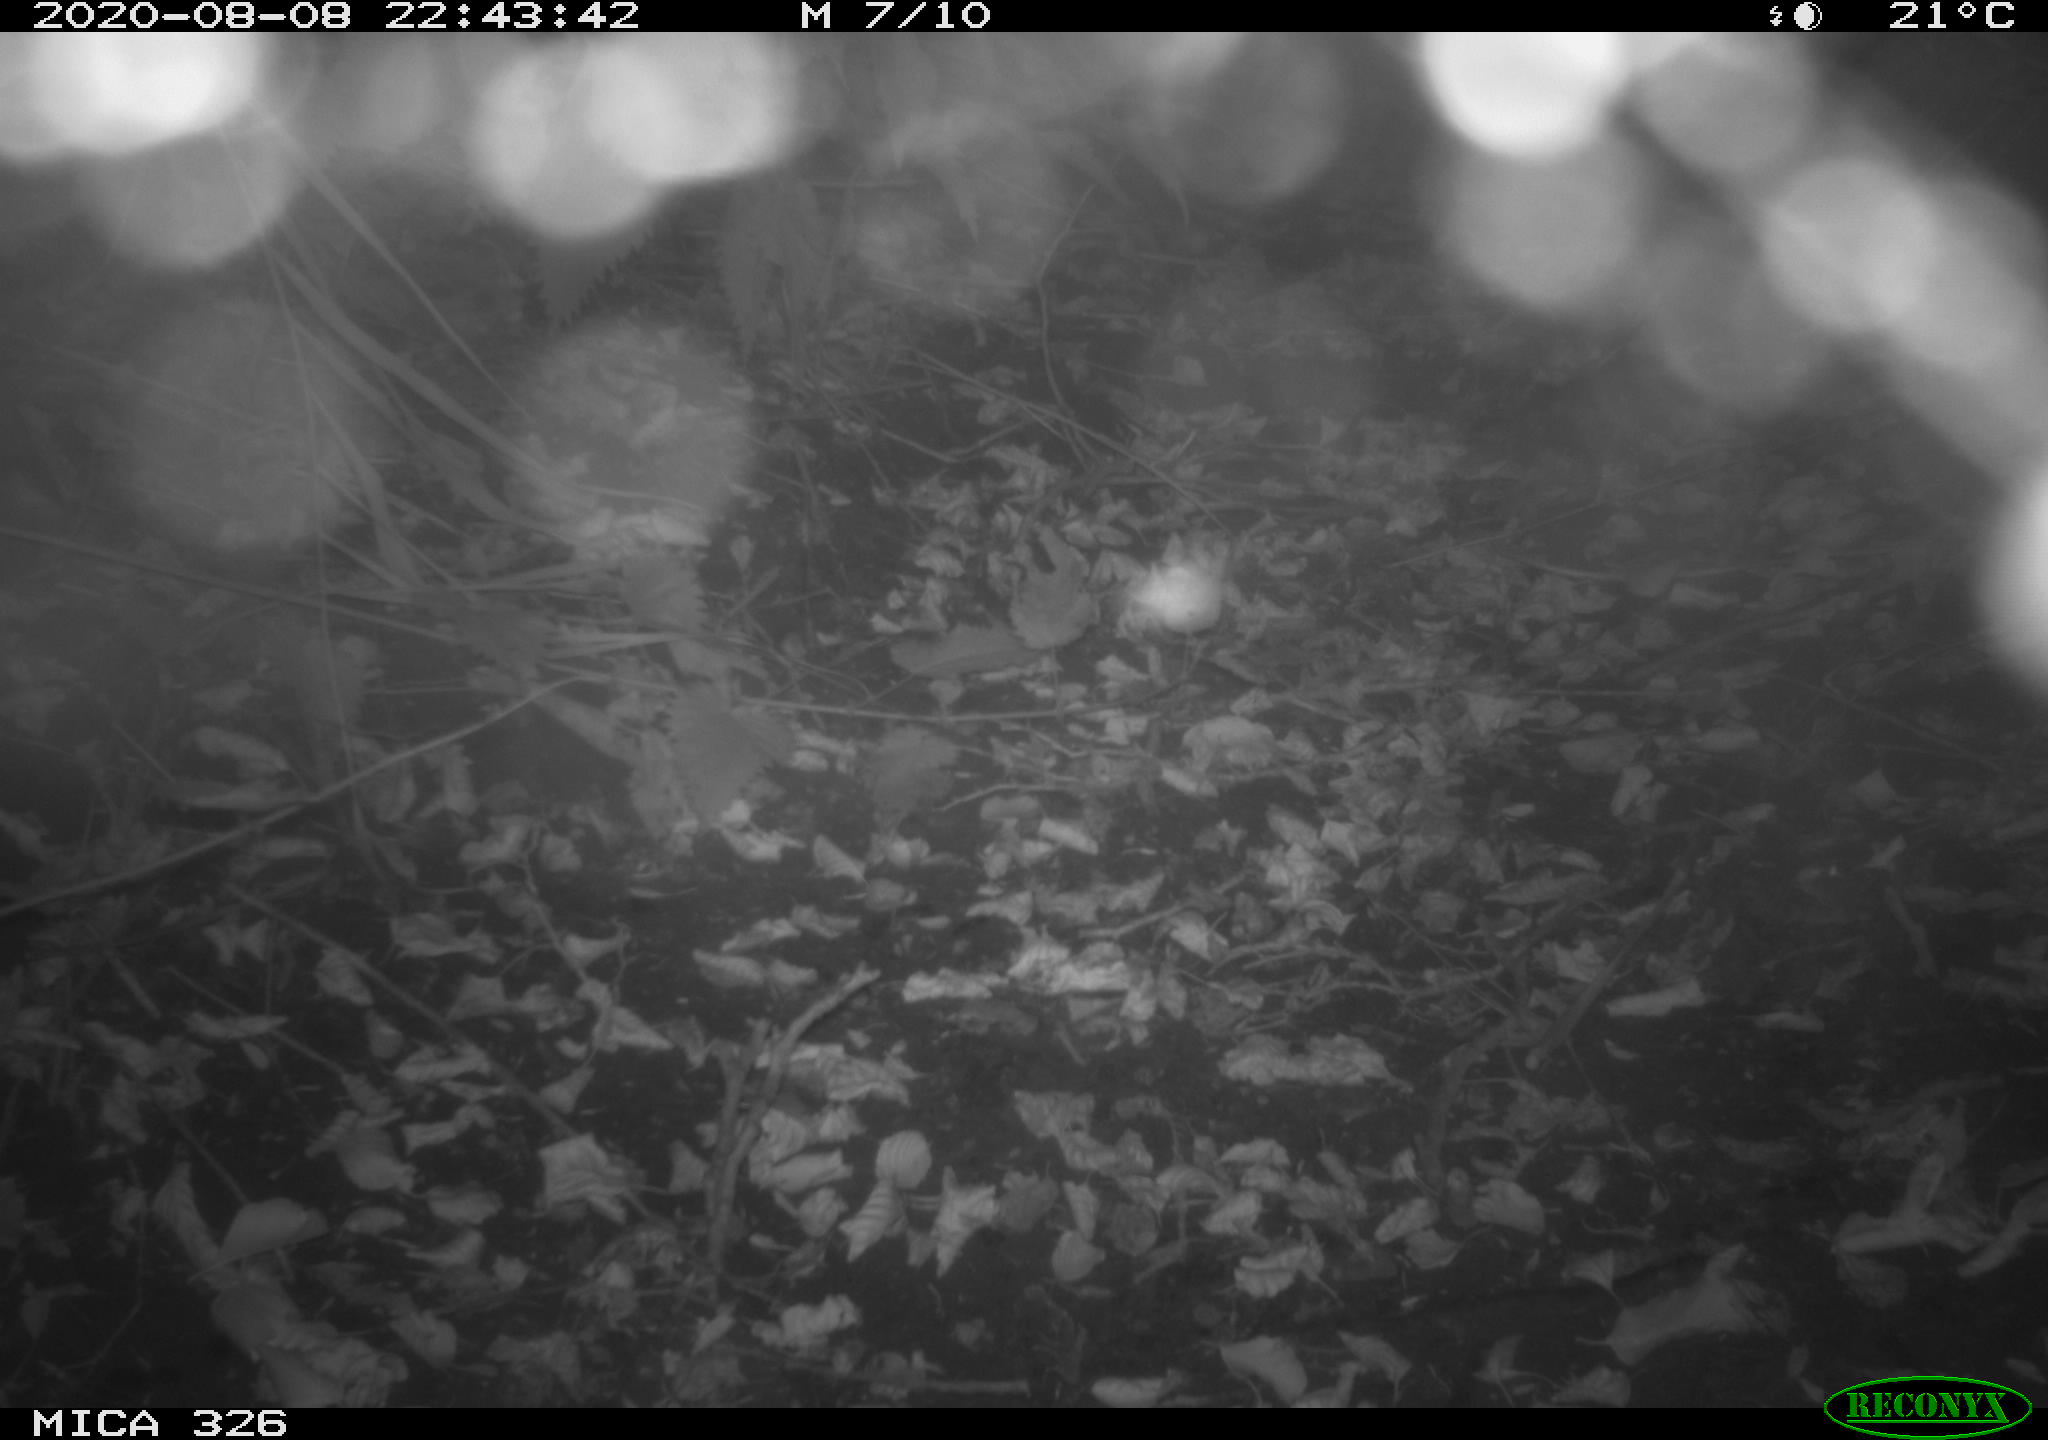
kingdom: Animalia
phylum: Chordata
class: Mammalia
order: Rodentia
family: Muridae
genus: Rattus
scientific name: Rattus norvegicus
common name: Brown rat
